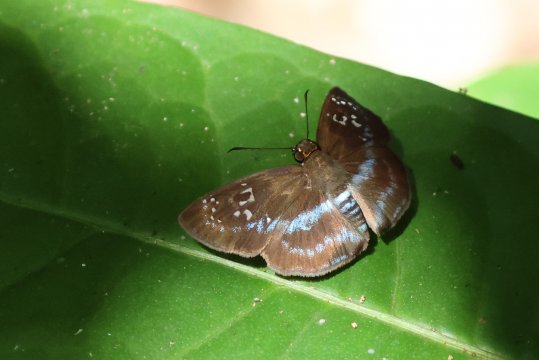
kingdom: Animalia
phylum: Arthropoda
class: Insecta
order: Lepidoptera
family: Hesperiidae
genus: Quadrus
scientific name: Quadrus contubernalis
